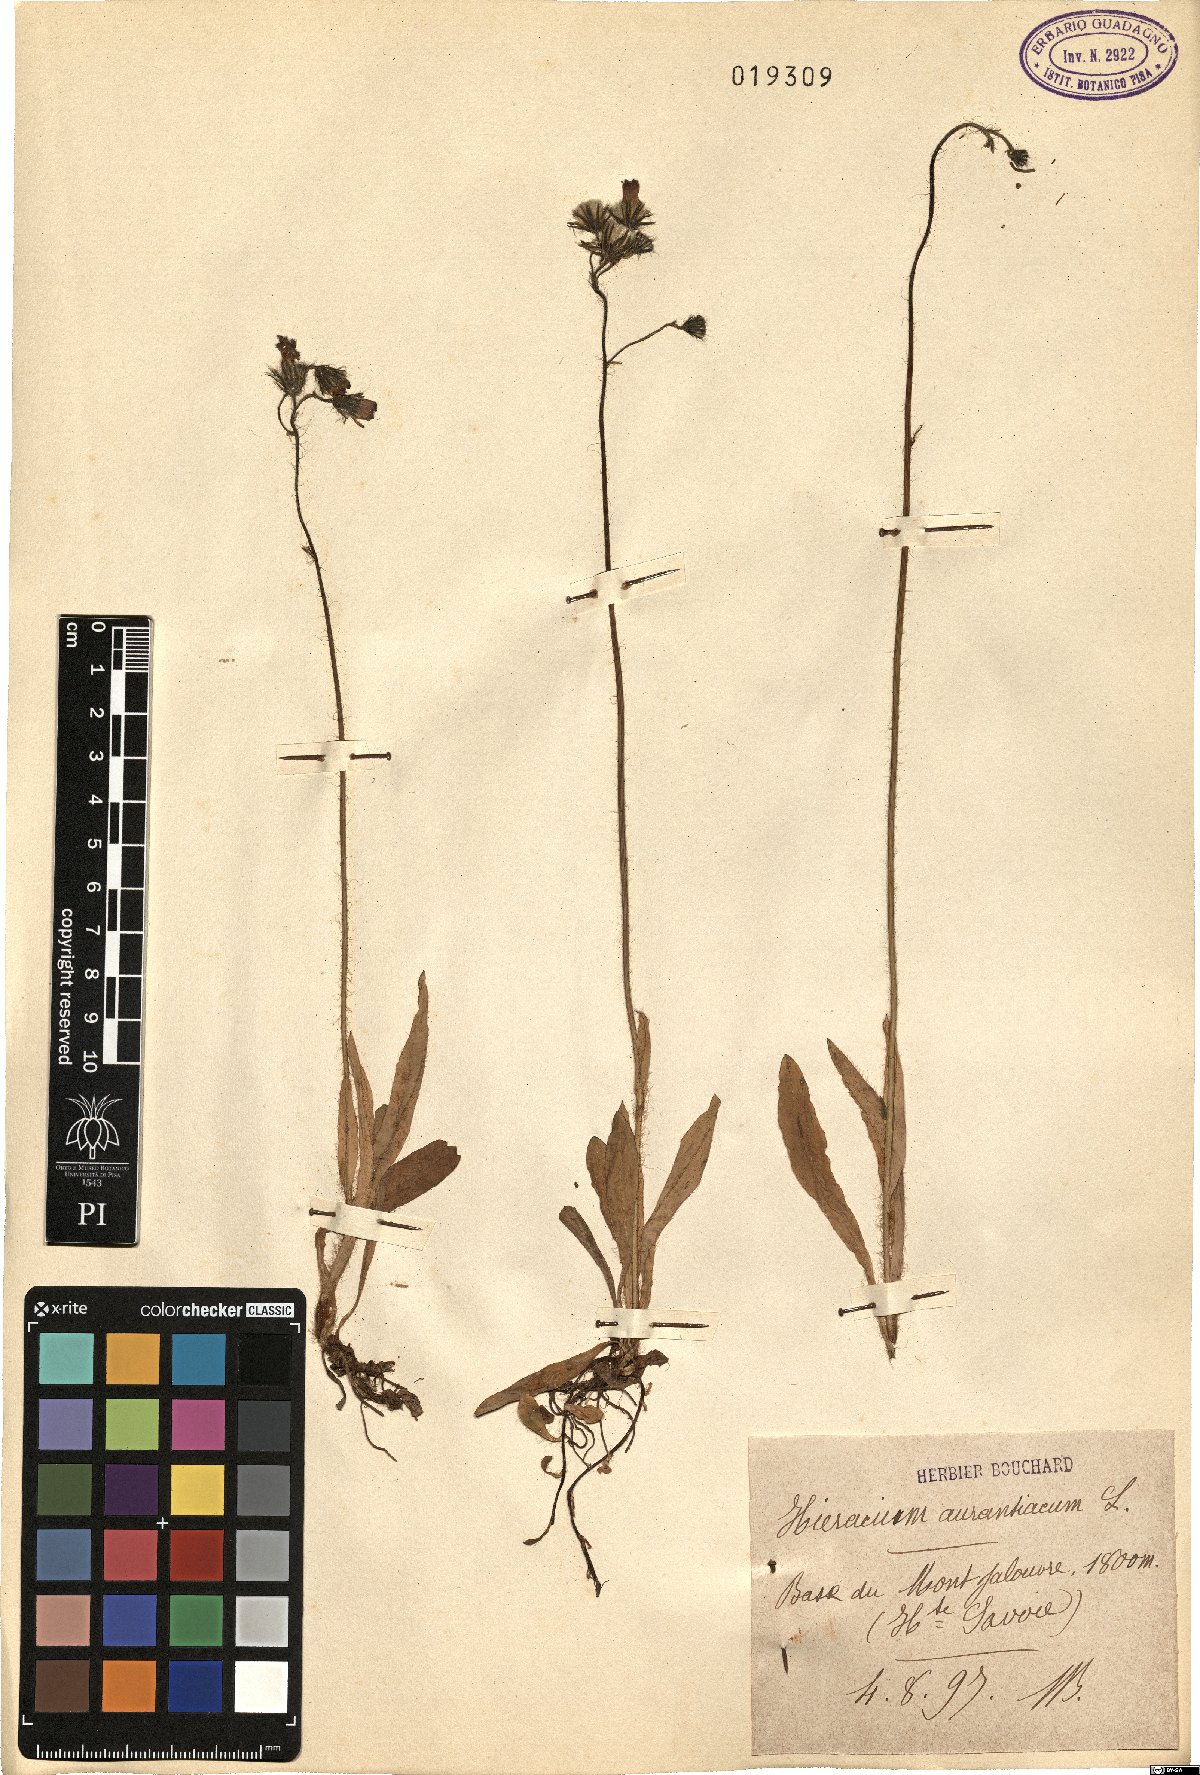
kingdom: Plantae
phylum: Tracheophyta
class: Magnoliopsida
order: Asterales
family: Asteraceae
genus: Pilosella
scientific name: Pilosella aurantiaca
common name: Fox-and-cubs
